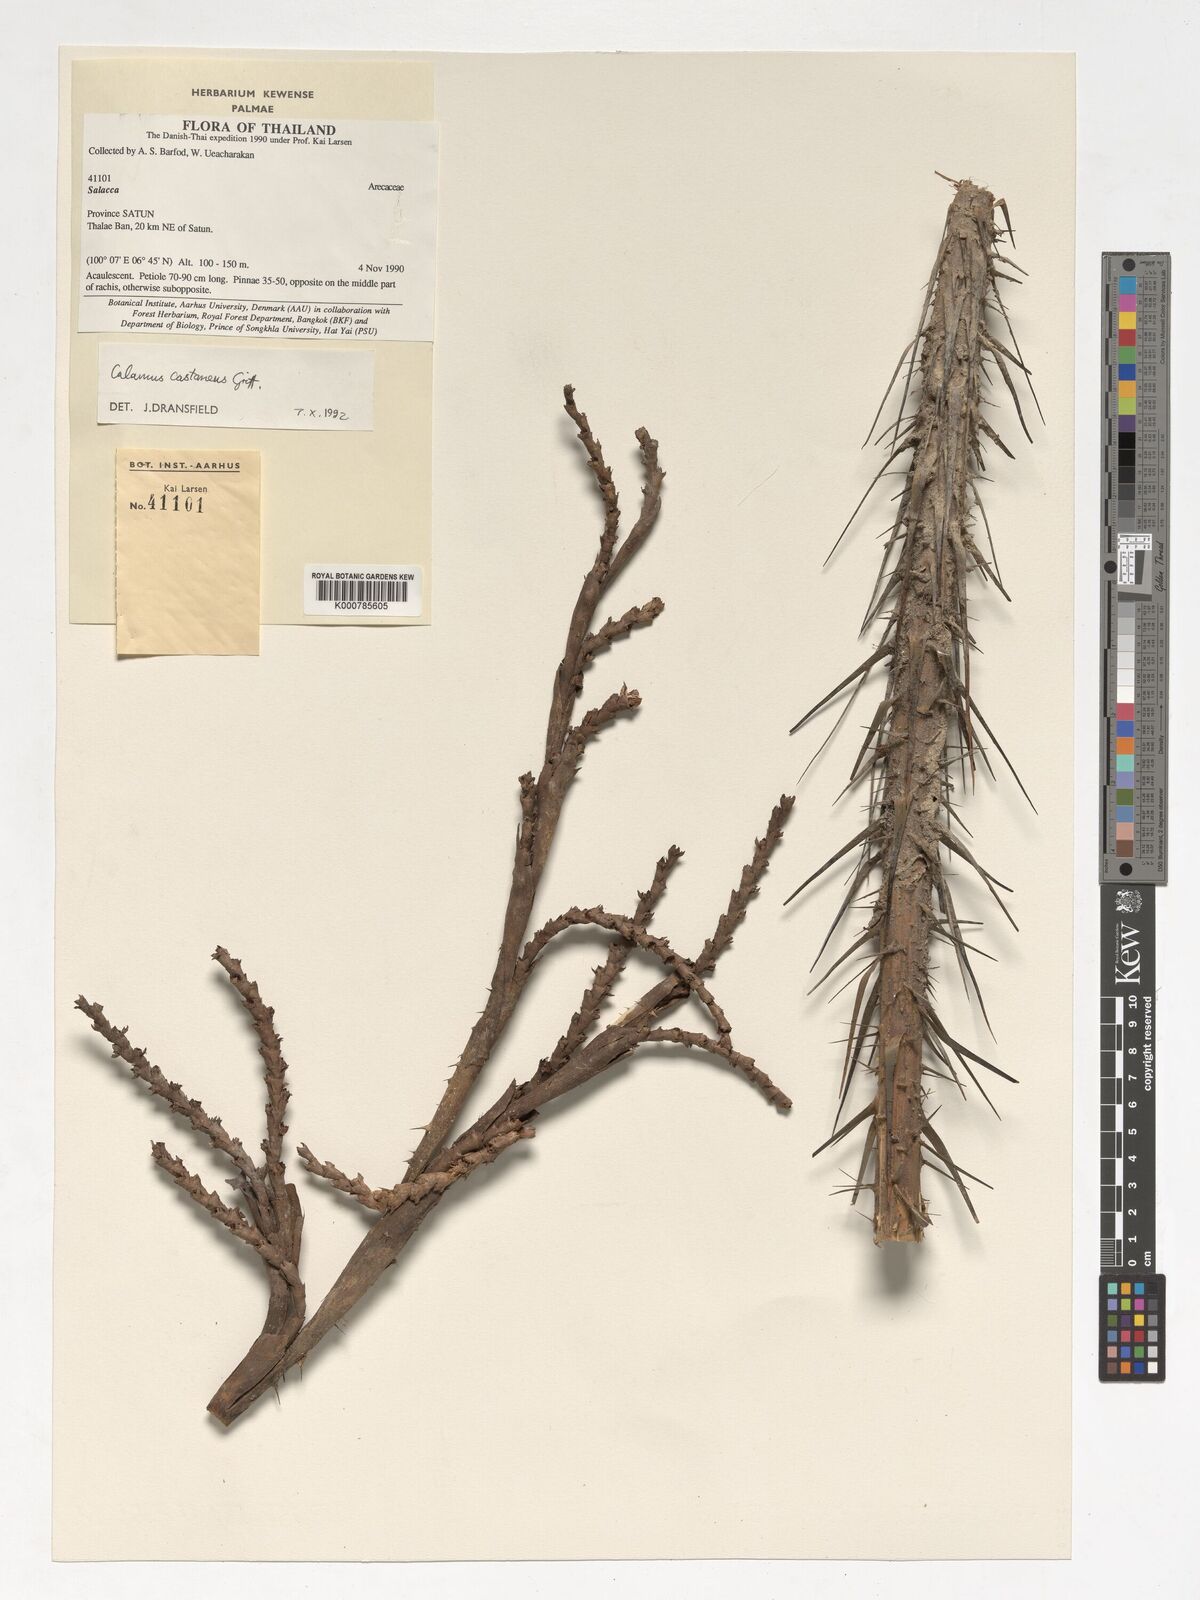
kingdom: Plantae
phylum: Tracheophyta
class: Liliopsida
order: Arecales
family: Arecaceae
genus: Calamus
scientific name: Calamus castaneus
